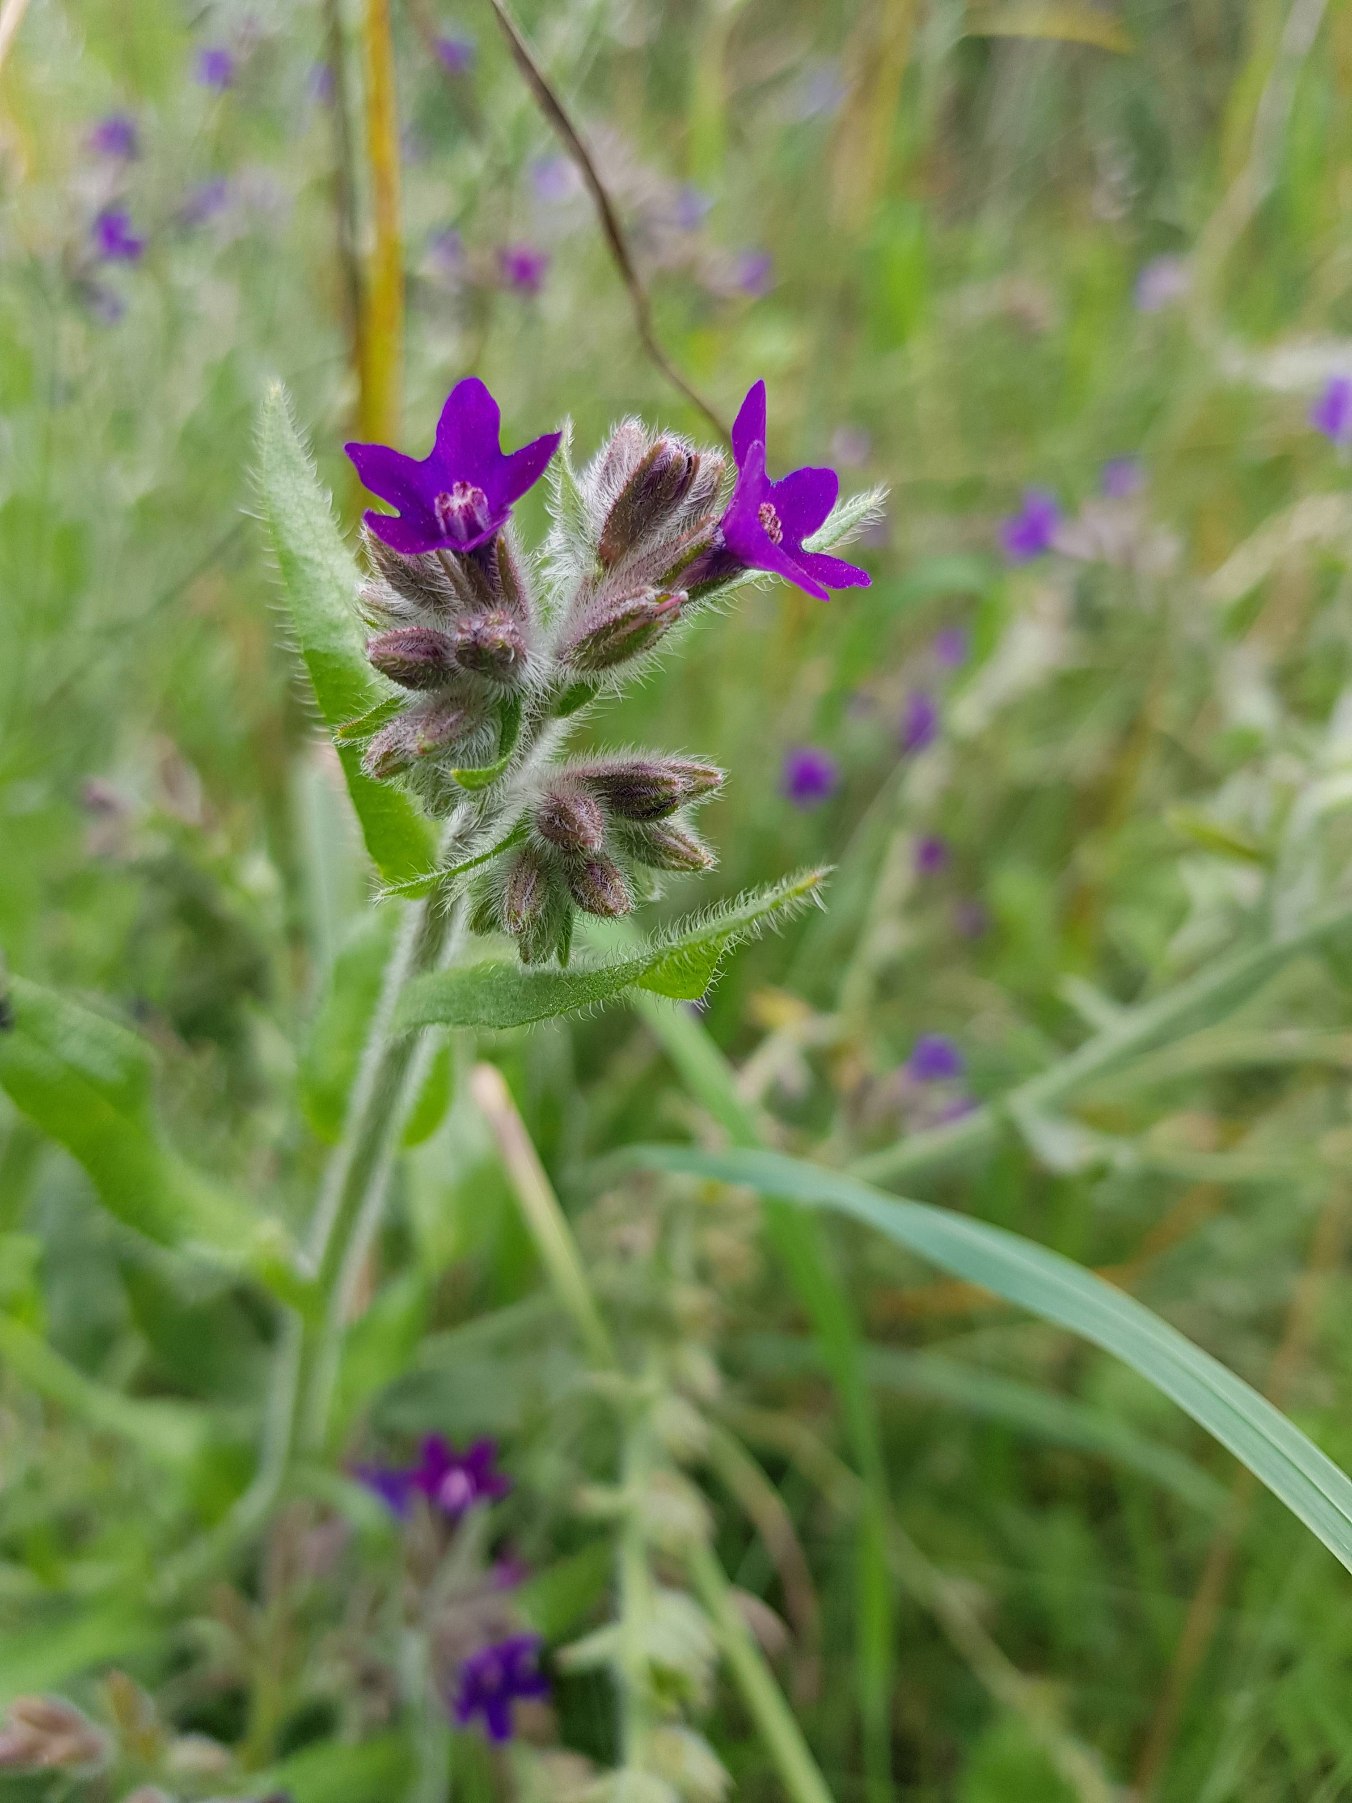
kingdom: Plantae
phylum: Tracheophyta
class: Magnoliopsida
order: Boraginales
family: Boraginaceae
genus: Anchusa
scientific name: Anchusa officinalis
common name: Læge-oksetunge
